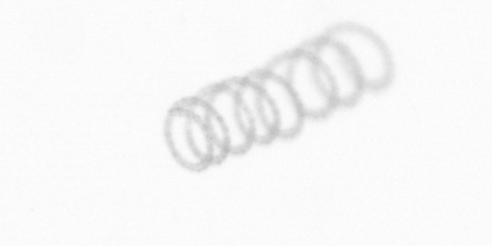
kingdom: Chromista
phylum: Ochrophyta
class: Bacillariophyceae
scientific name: Bacillariophyceae
